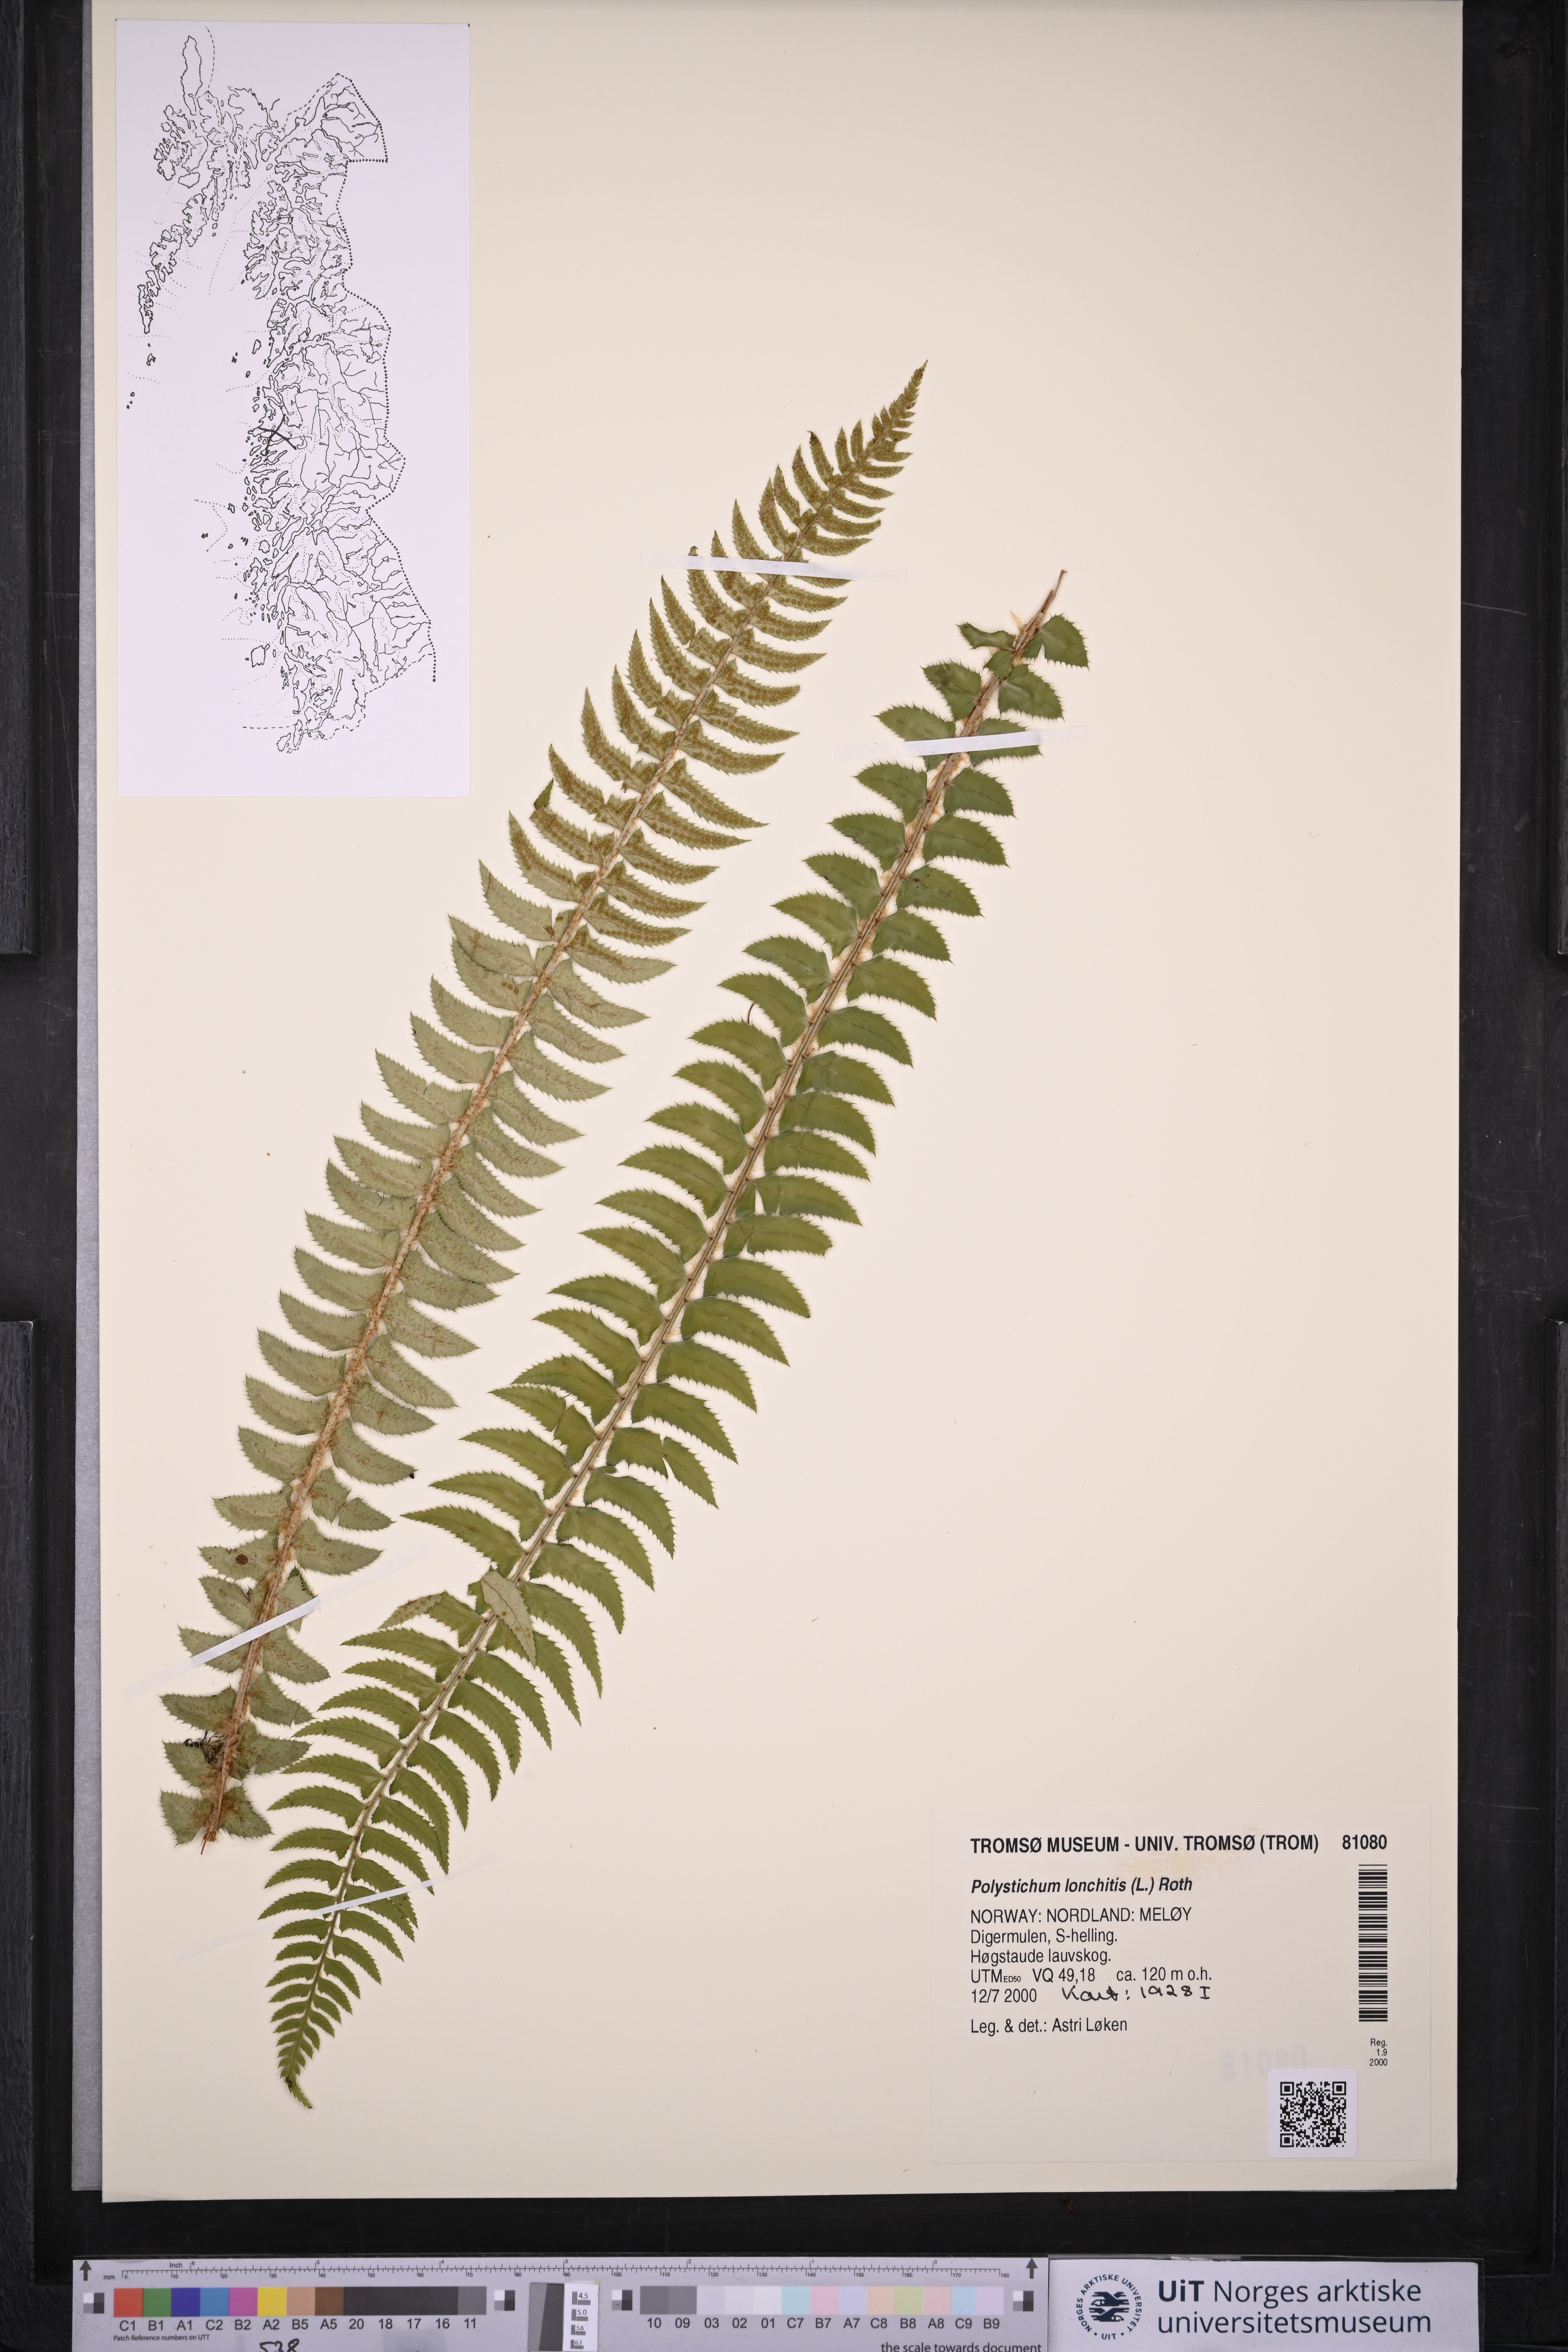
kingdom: Plantae
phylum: Tracheophyta
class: Polypodiopsida
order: Polypodiales
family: Dryopteridaceae
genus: Polystichum
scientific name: Polystichum lonchitis
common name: Holly fern
